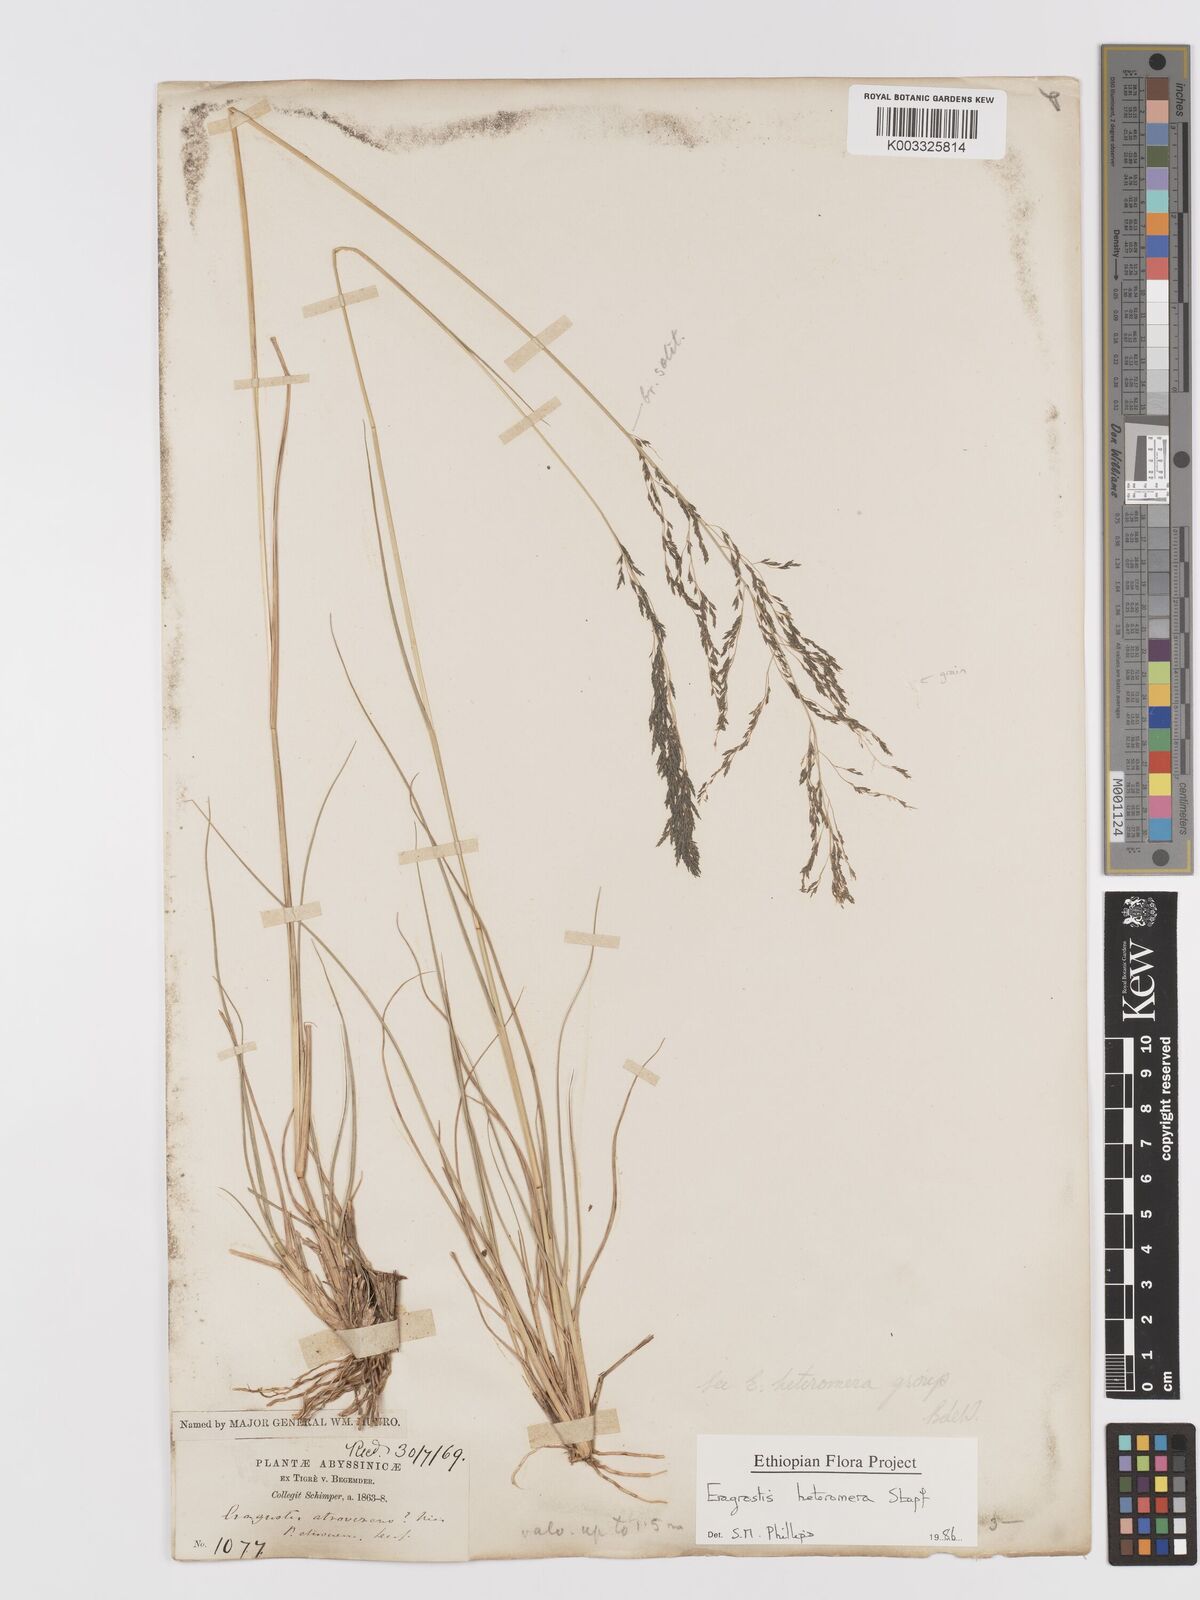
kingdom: Plantae
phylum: Tracheophyta
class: Liliopsida
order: Poales
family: Poaceae
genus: Eragrostis
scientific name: Eragrostis heteromera
